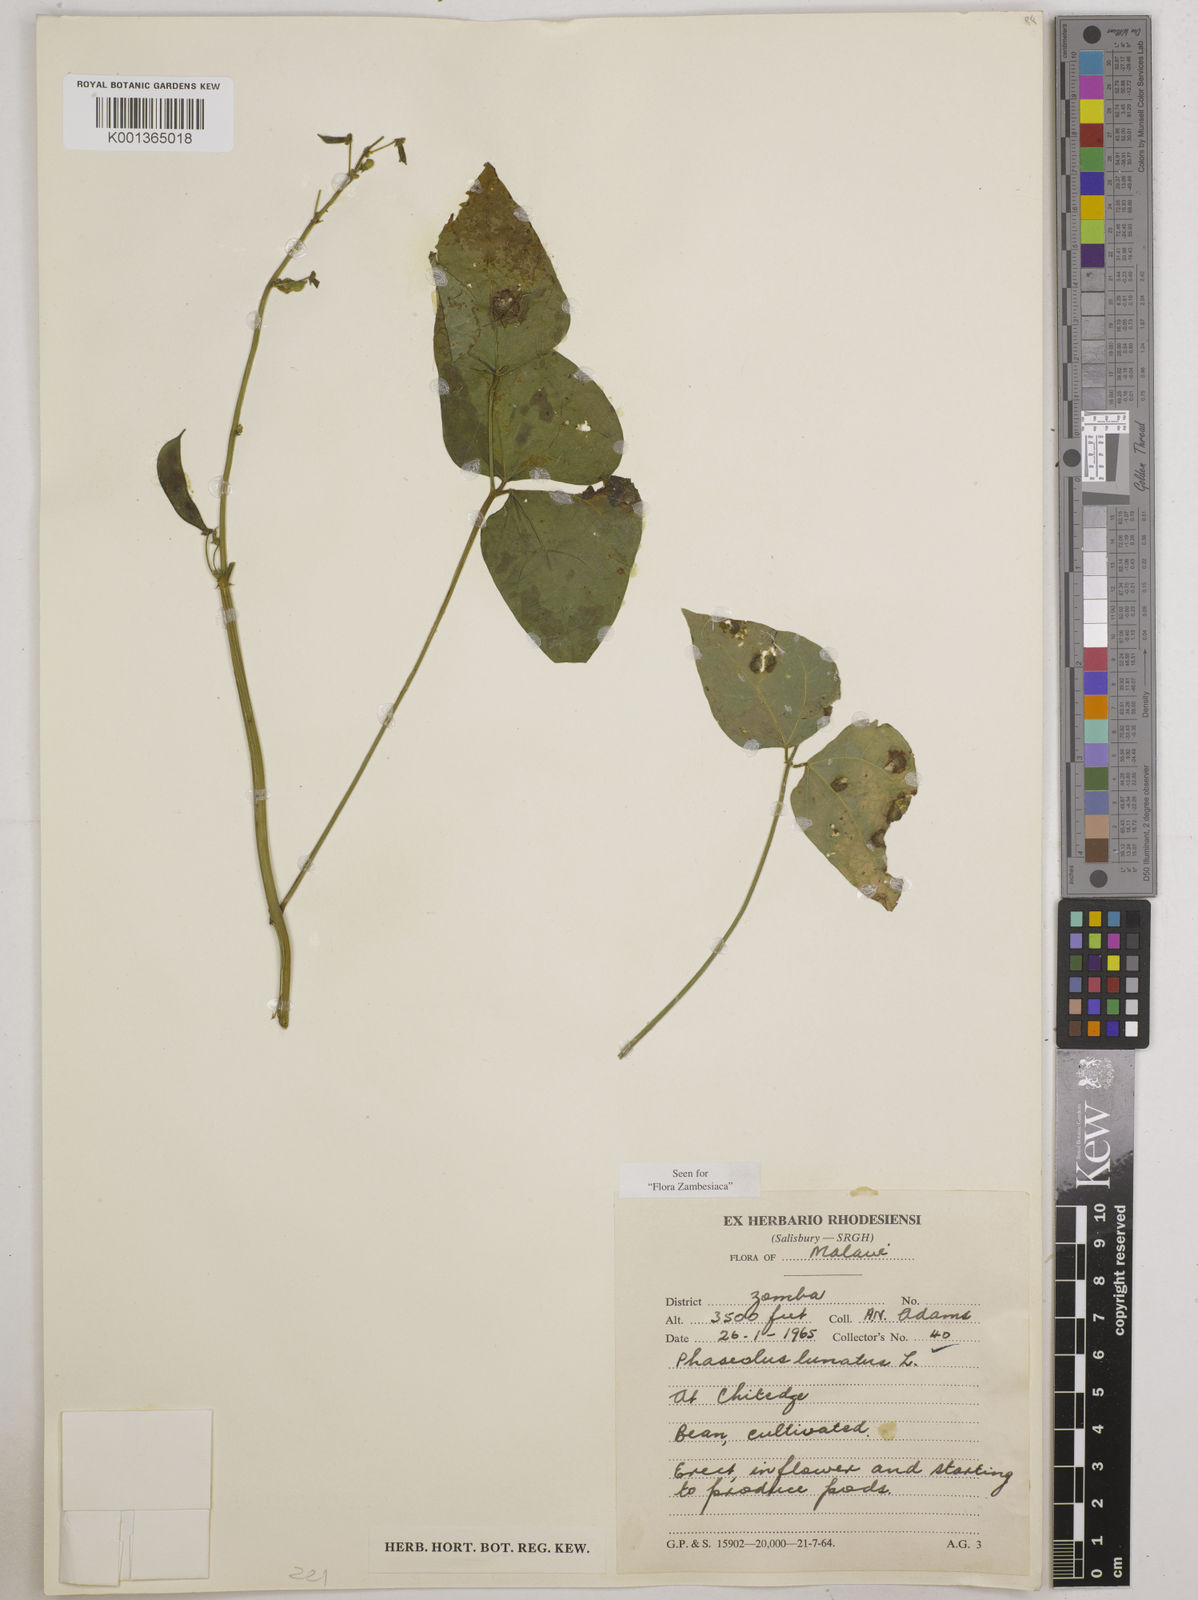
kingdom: Plantae
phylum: Tracheophyta
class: Magnoliopsida
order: Fabales
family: Fabaceae
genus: Phaseolus
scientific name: Phaseolus lunatus
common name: Sieva bean
